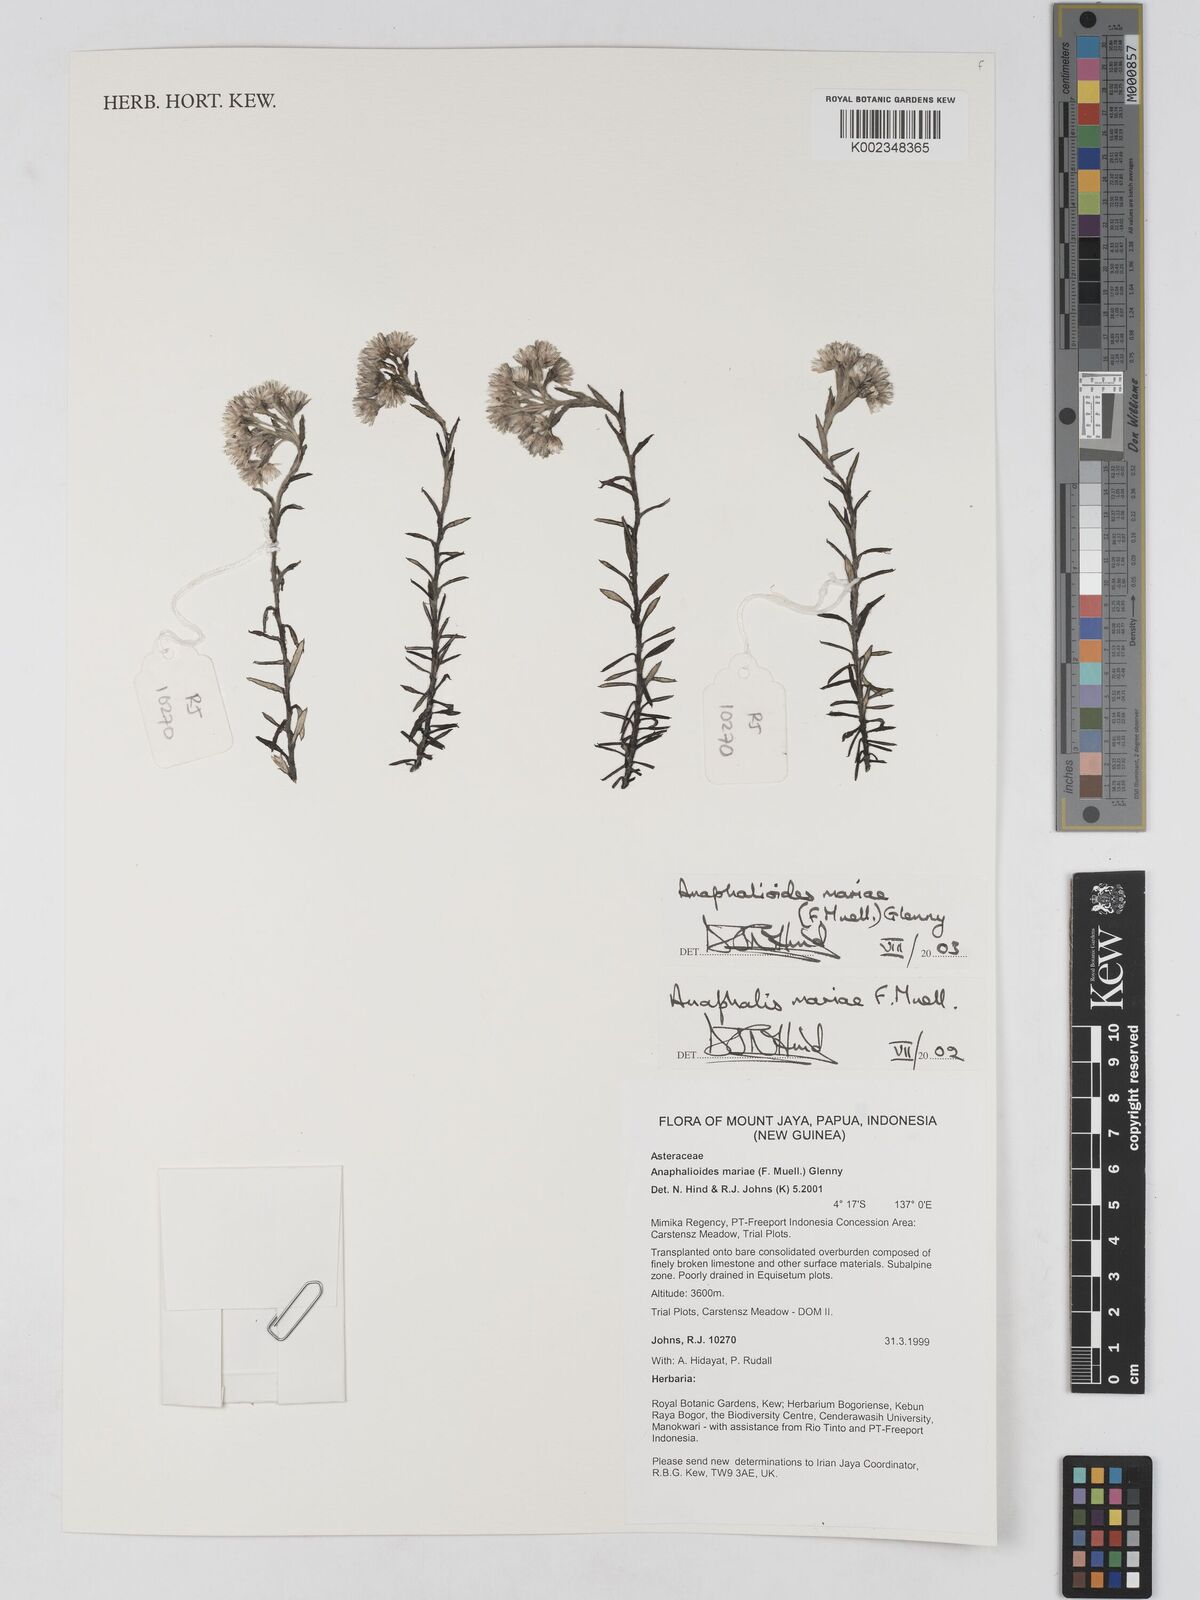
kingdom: Plantae
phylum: Tracheophyta
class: Magnoliopsida
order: Asterales
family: Asteraceae
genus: Anaphalioides
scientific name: Anaphalioides mariae
